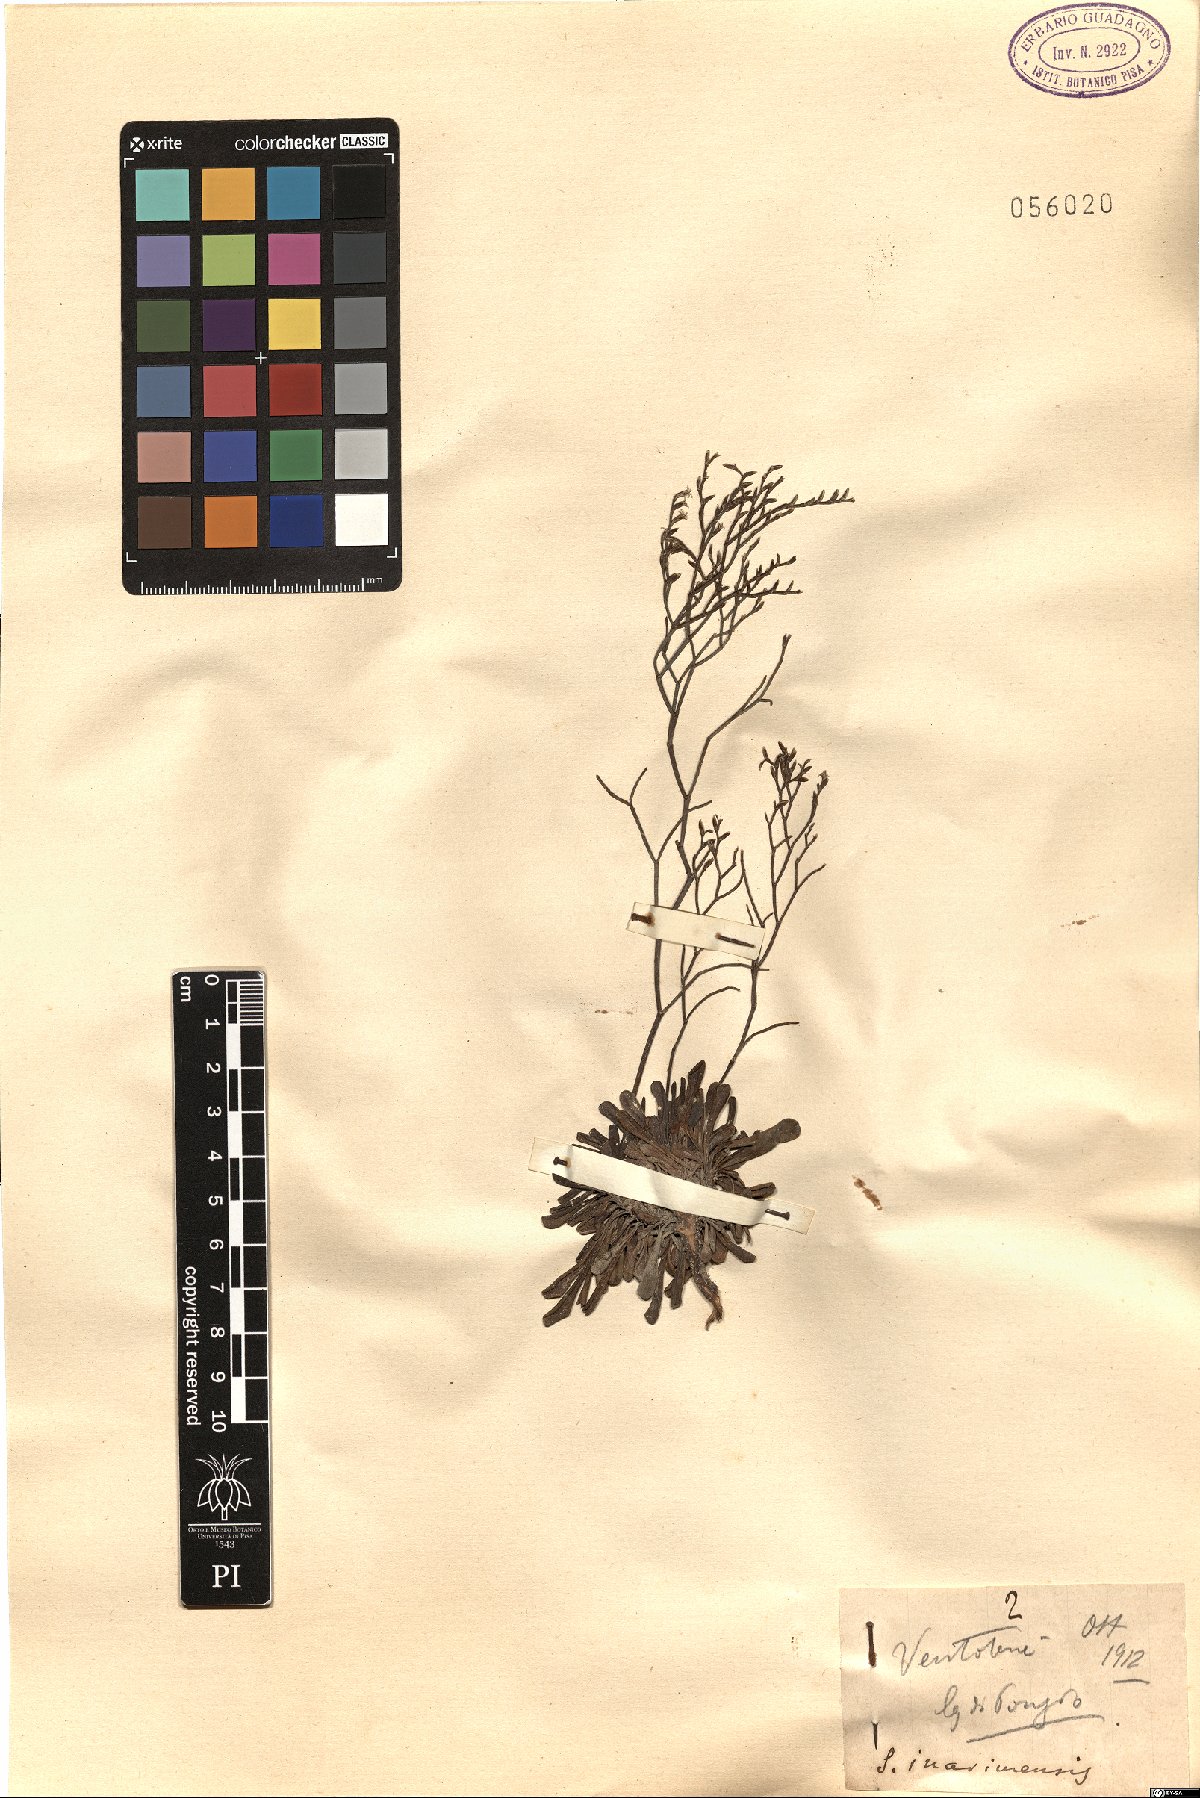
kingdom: Plantae
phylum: Tracheophyta
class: Magnoliopsida
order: Caryophyllales
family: Plumbaginaceae
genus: Limonium
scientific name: Limonium inarimense
